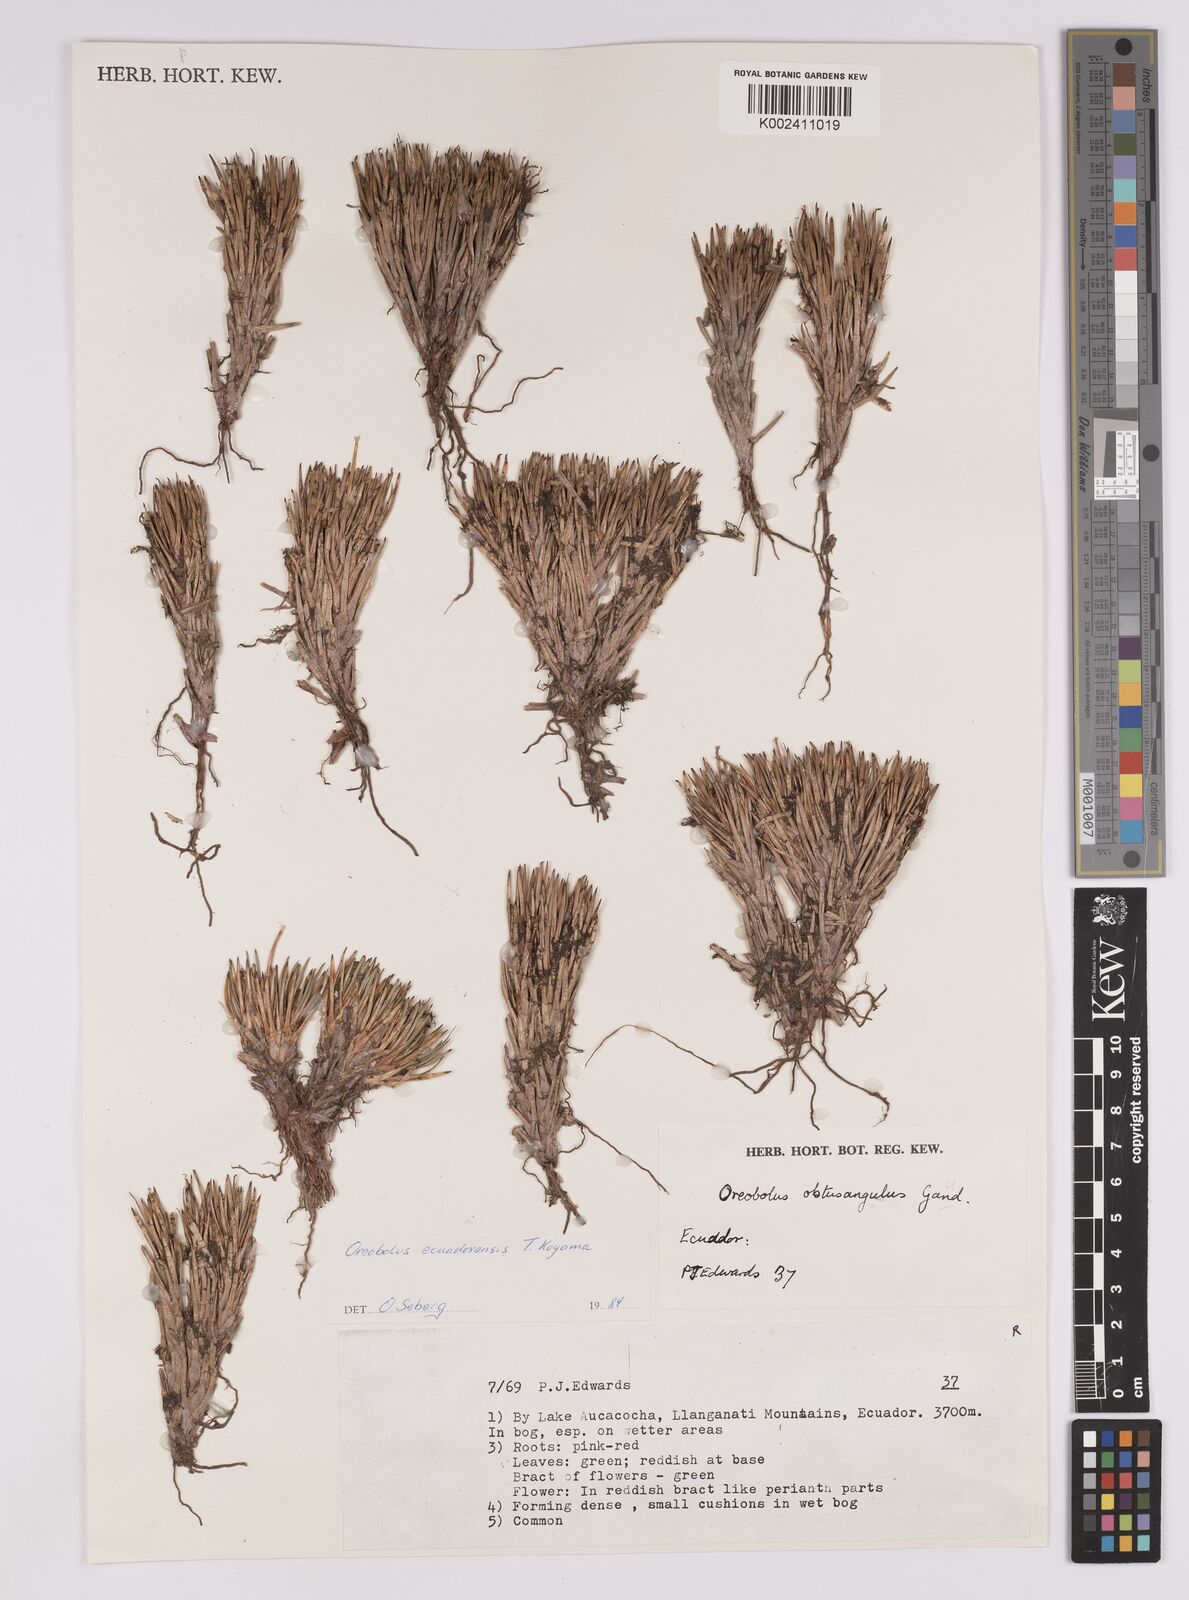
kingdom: Plantae
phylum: Tracheophyta
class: Liliopsida
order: Poales
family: Cyperaceae
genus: Oreobolus
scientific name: Oreobolus obtusangulus
